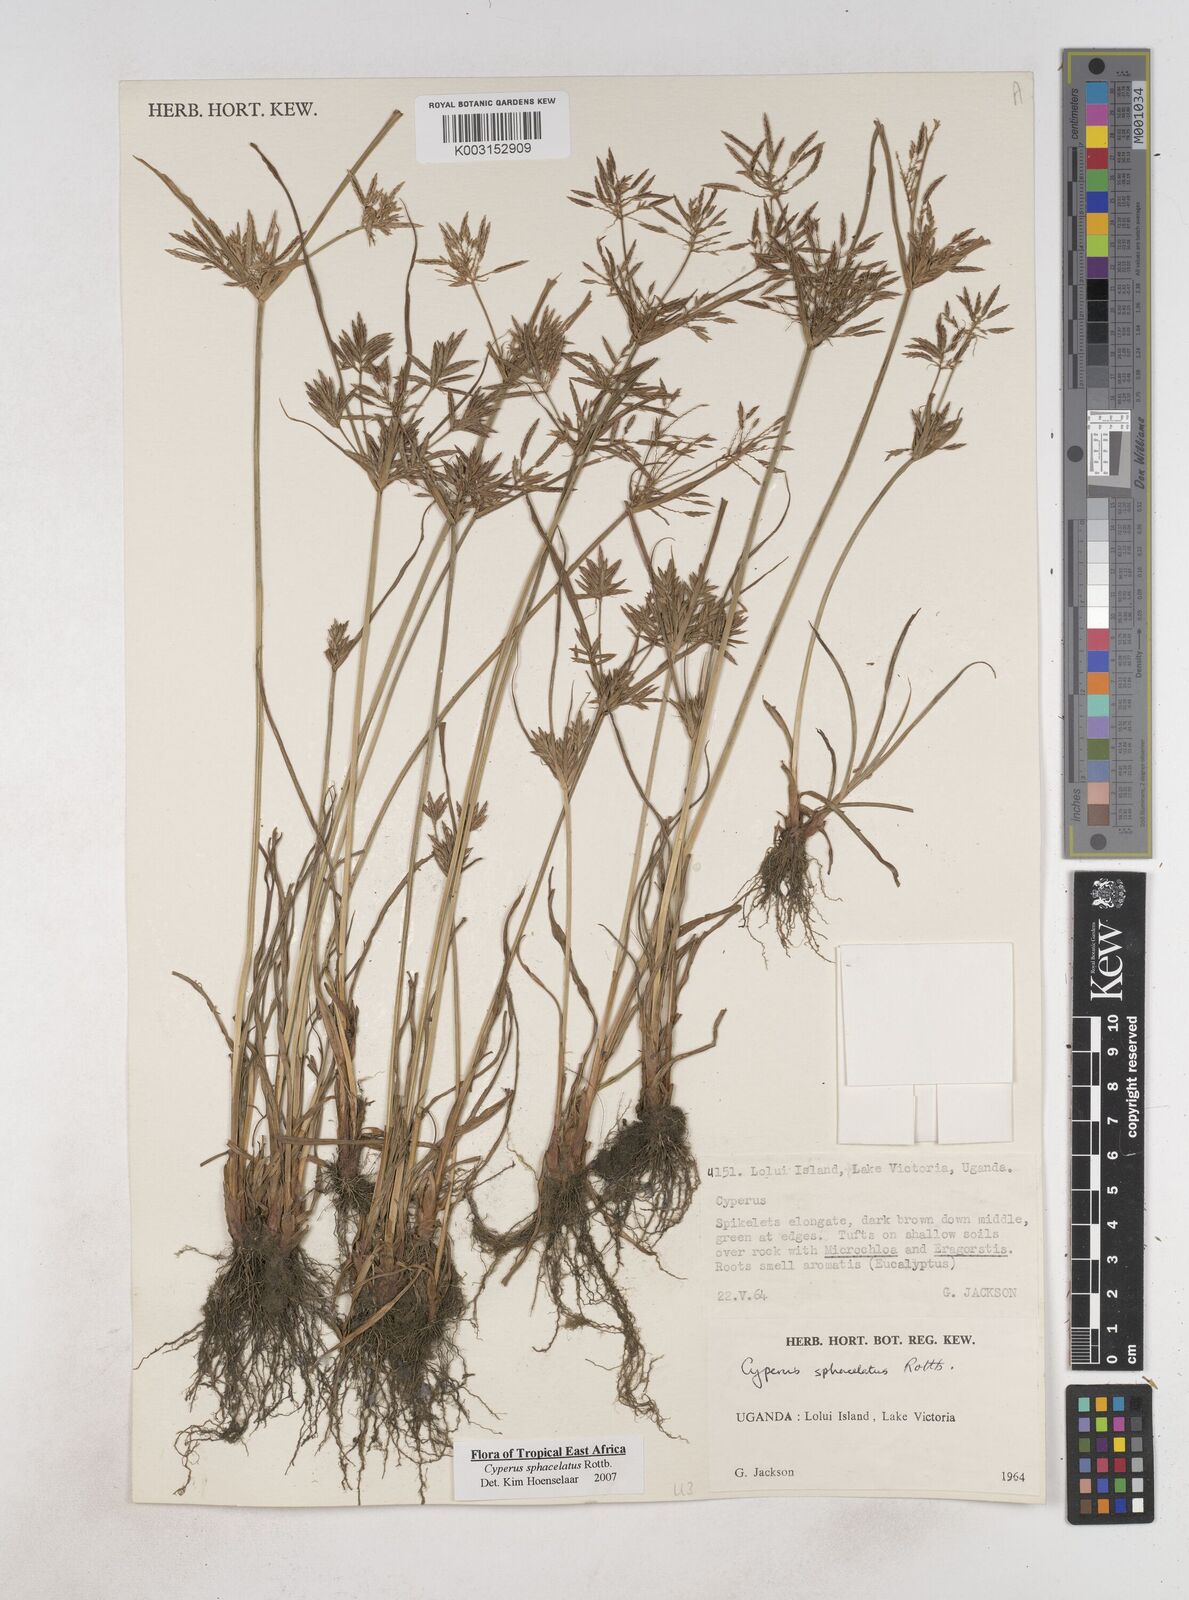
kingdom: Plantae
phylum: Tracheophyta
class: Liliopsida
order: Poales
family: Cyperaceae
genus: Cyperus
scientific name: Cyperus sphacelatus
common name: Roadside flatsedge
